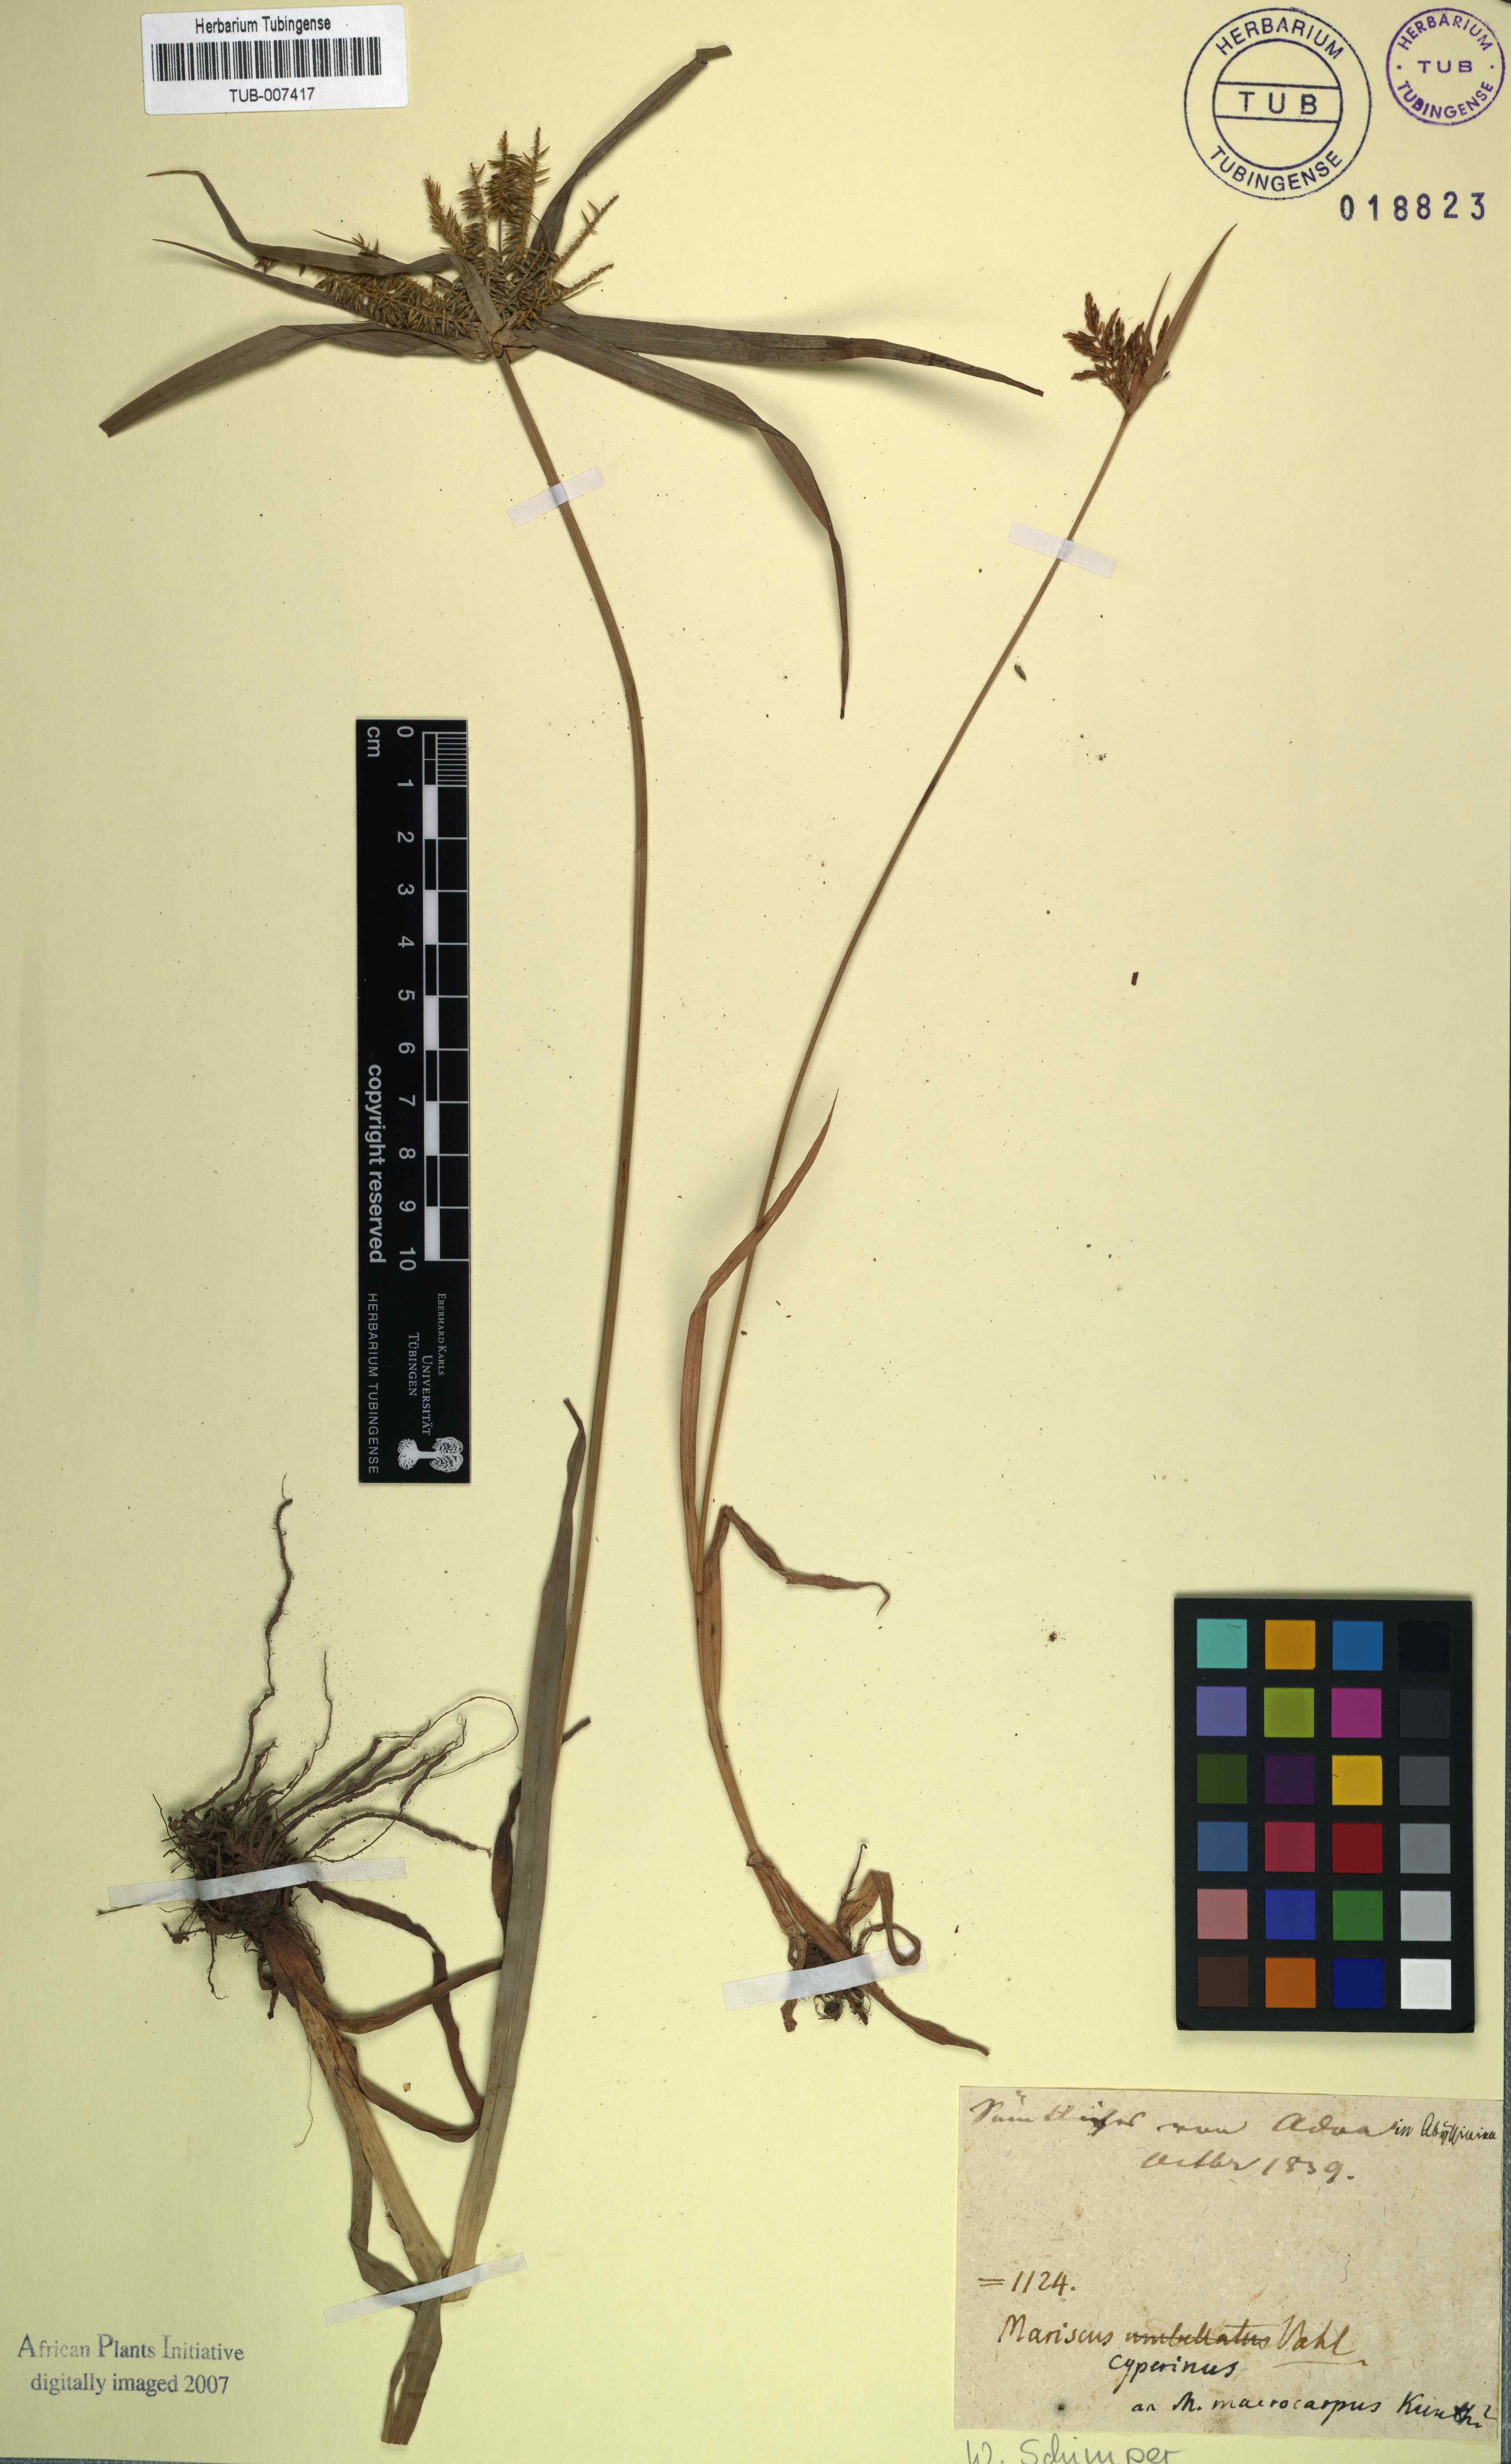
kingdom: Plantae
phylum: Tracheophyta
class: Liliopsida
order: Poales
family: Cyperaceae
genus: Cyperus
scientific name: Cyperus macrocarpus
